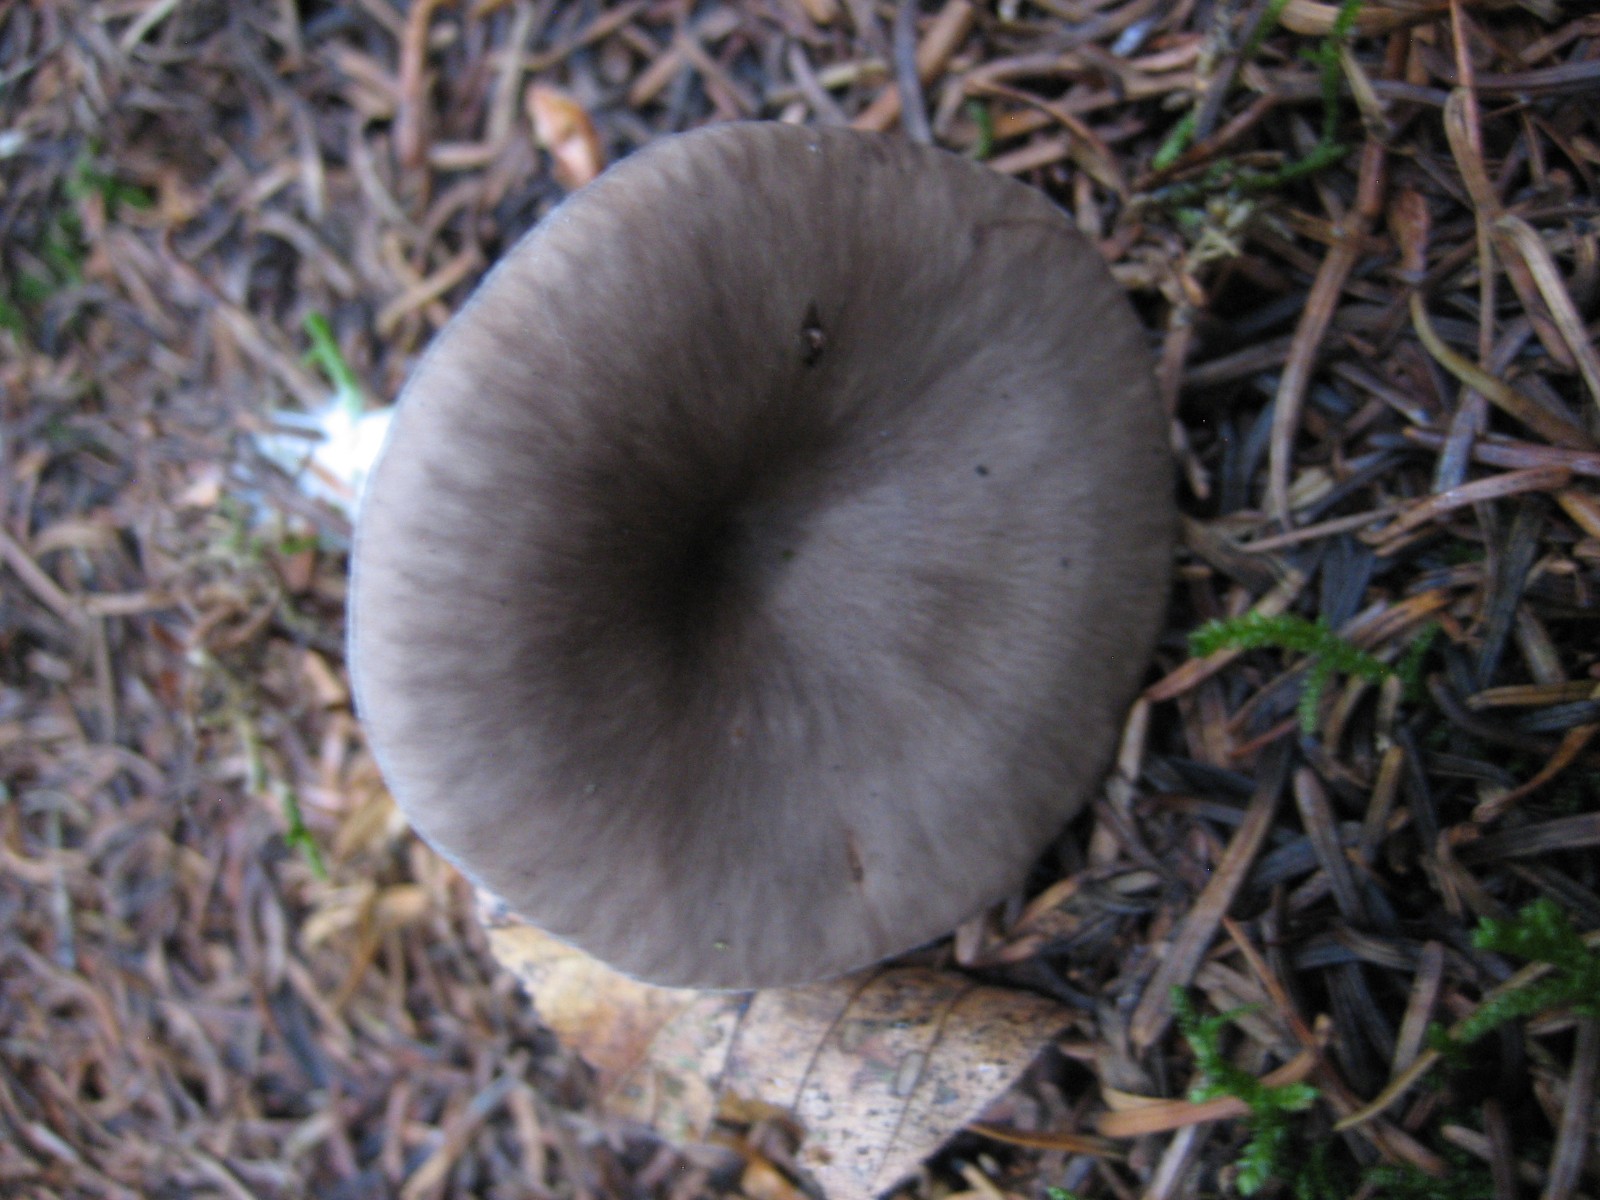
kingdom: Fungi
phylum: Basidiomycota
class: Agaricomycetes
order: Agaricales
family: Pseudoclitocybaceae
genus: Pseudoclitocybe
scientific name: Pseudoclitocybe cyathiformis
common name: almindelig bægertragthat
